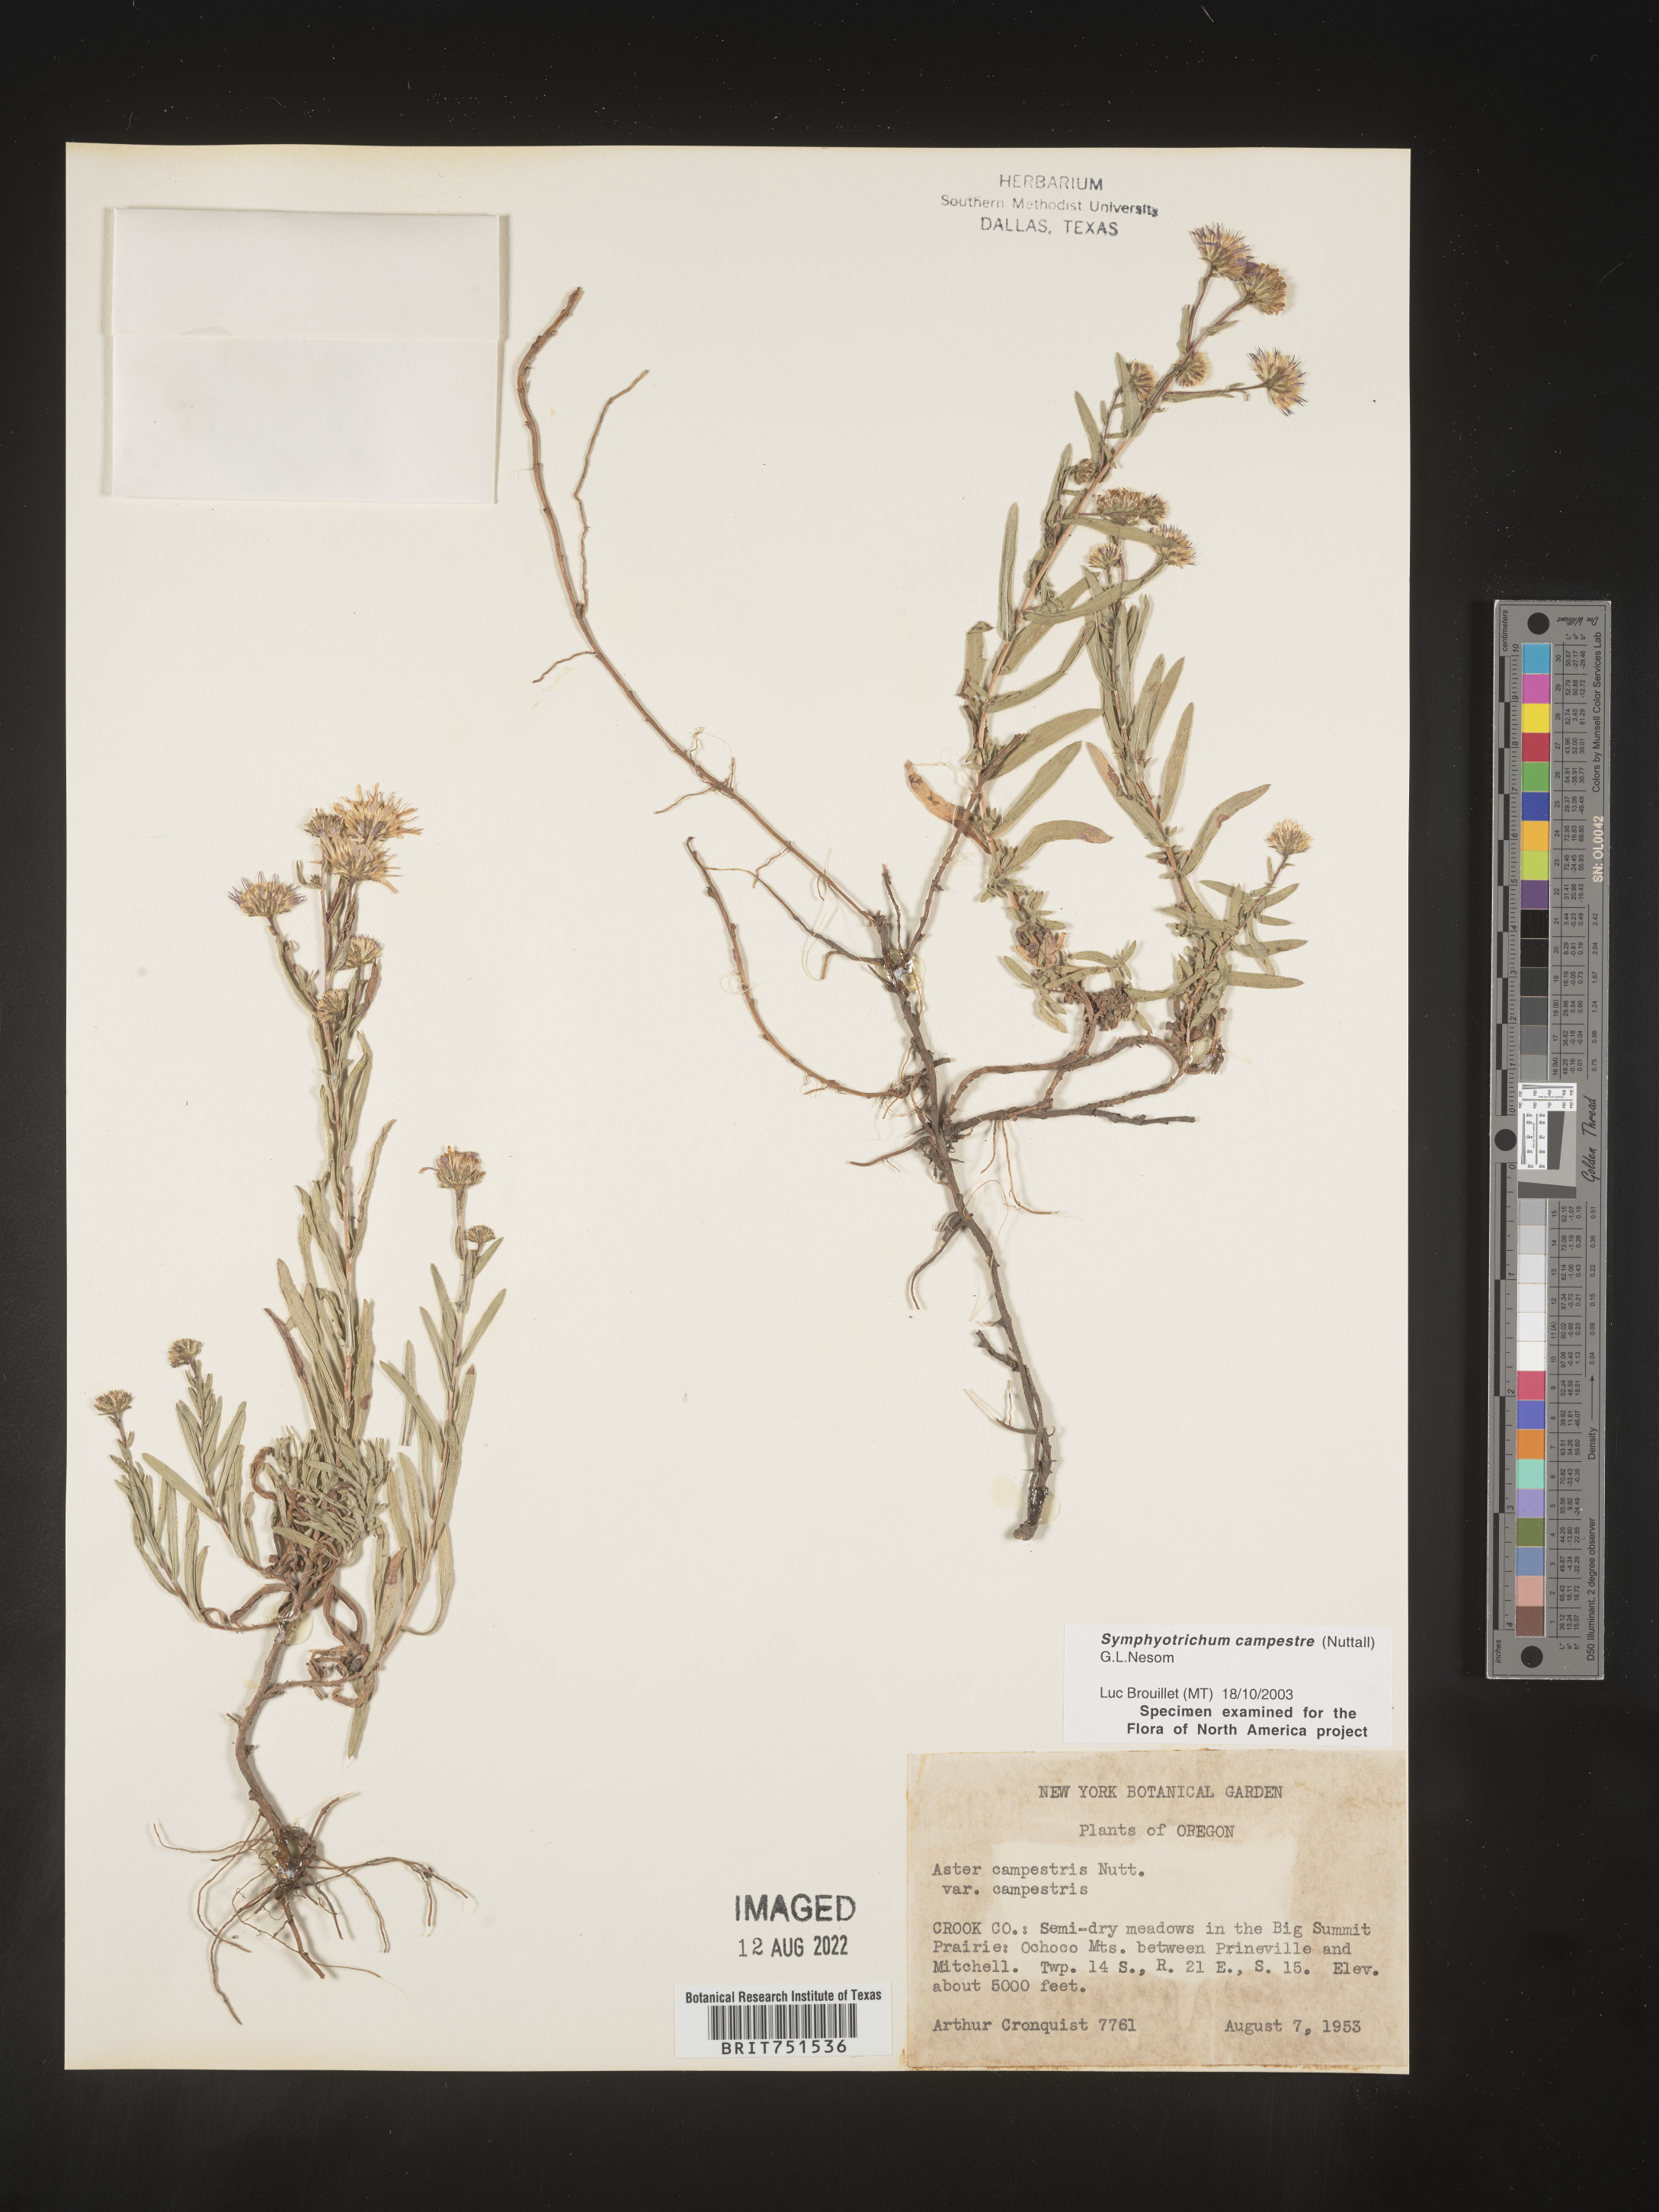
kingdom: Plantae
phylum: Tracheophyta
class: Magnoliopsida
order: Asterales
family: Asteraceae
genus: Symphyotrichum
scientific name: Symphyotrichum campestre
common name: Meadow aster
